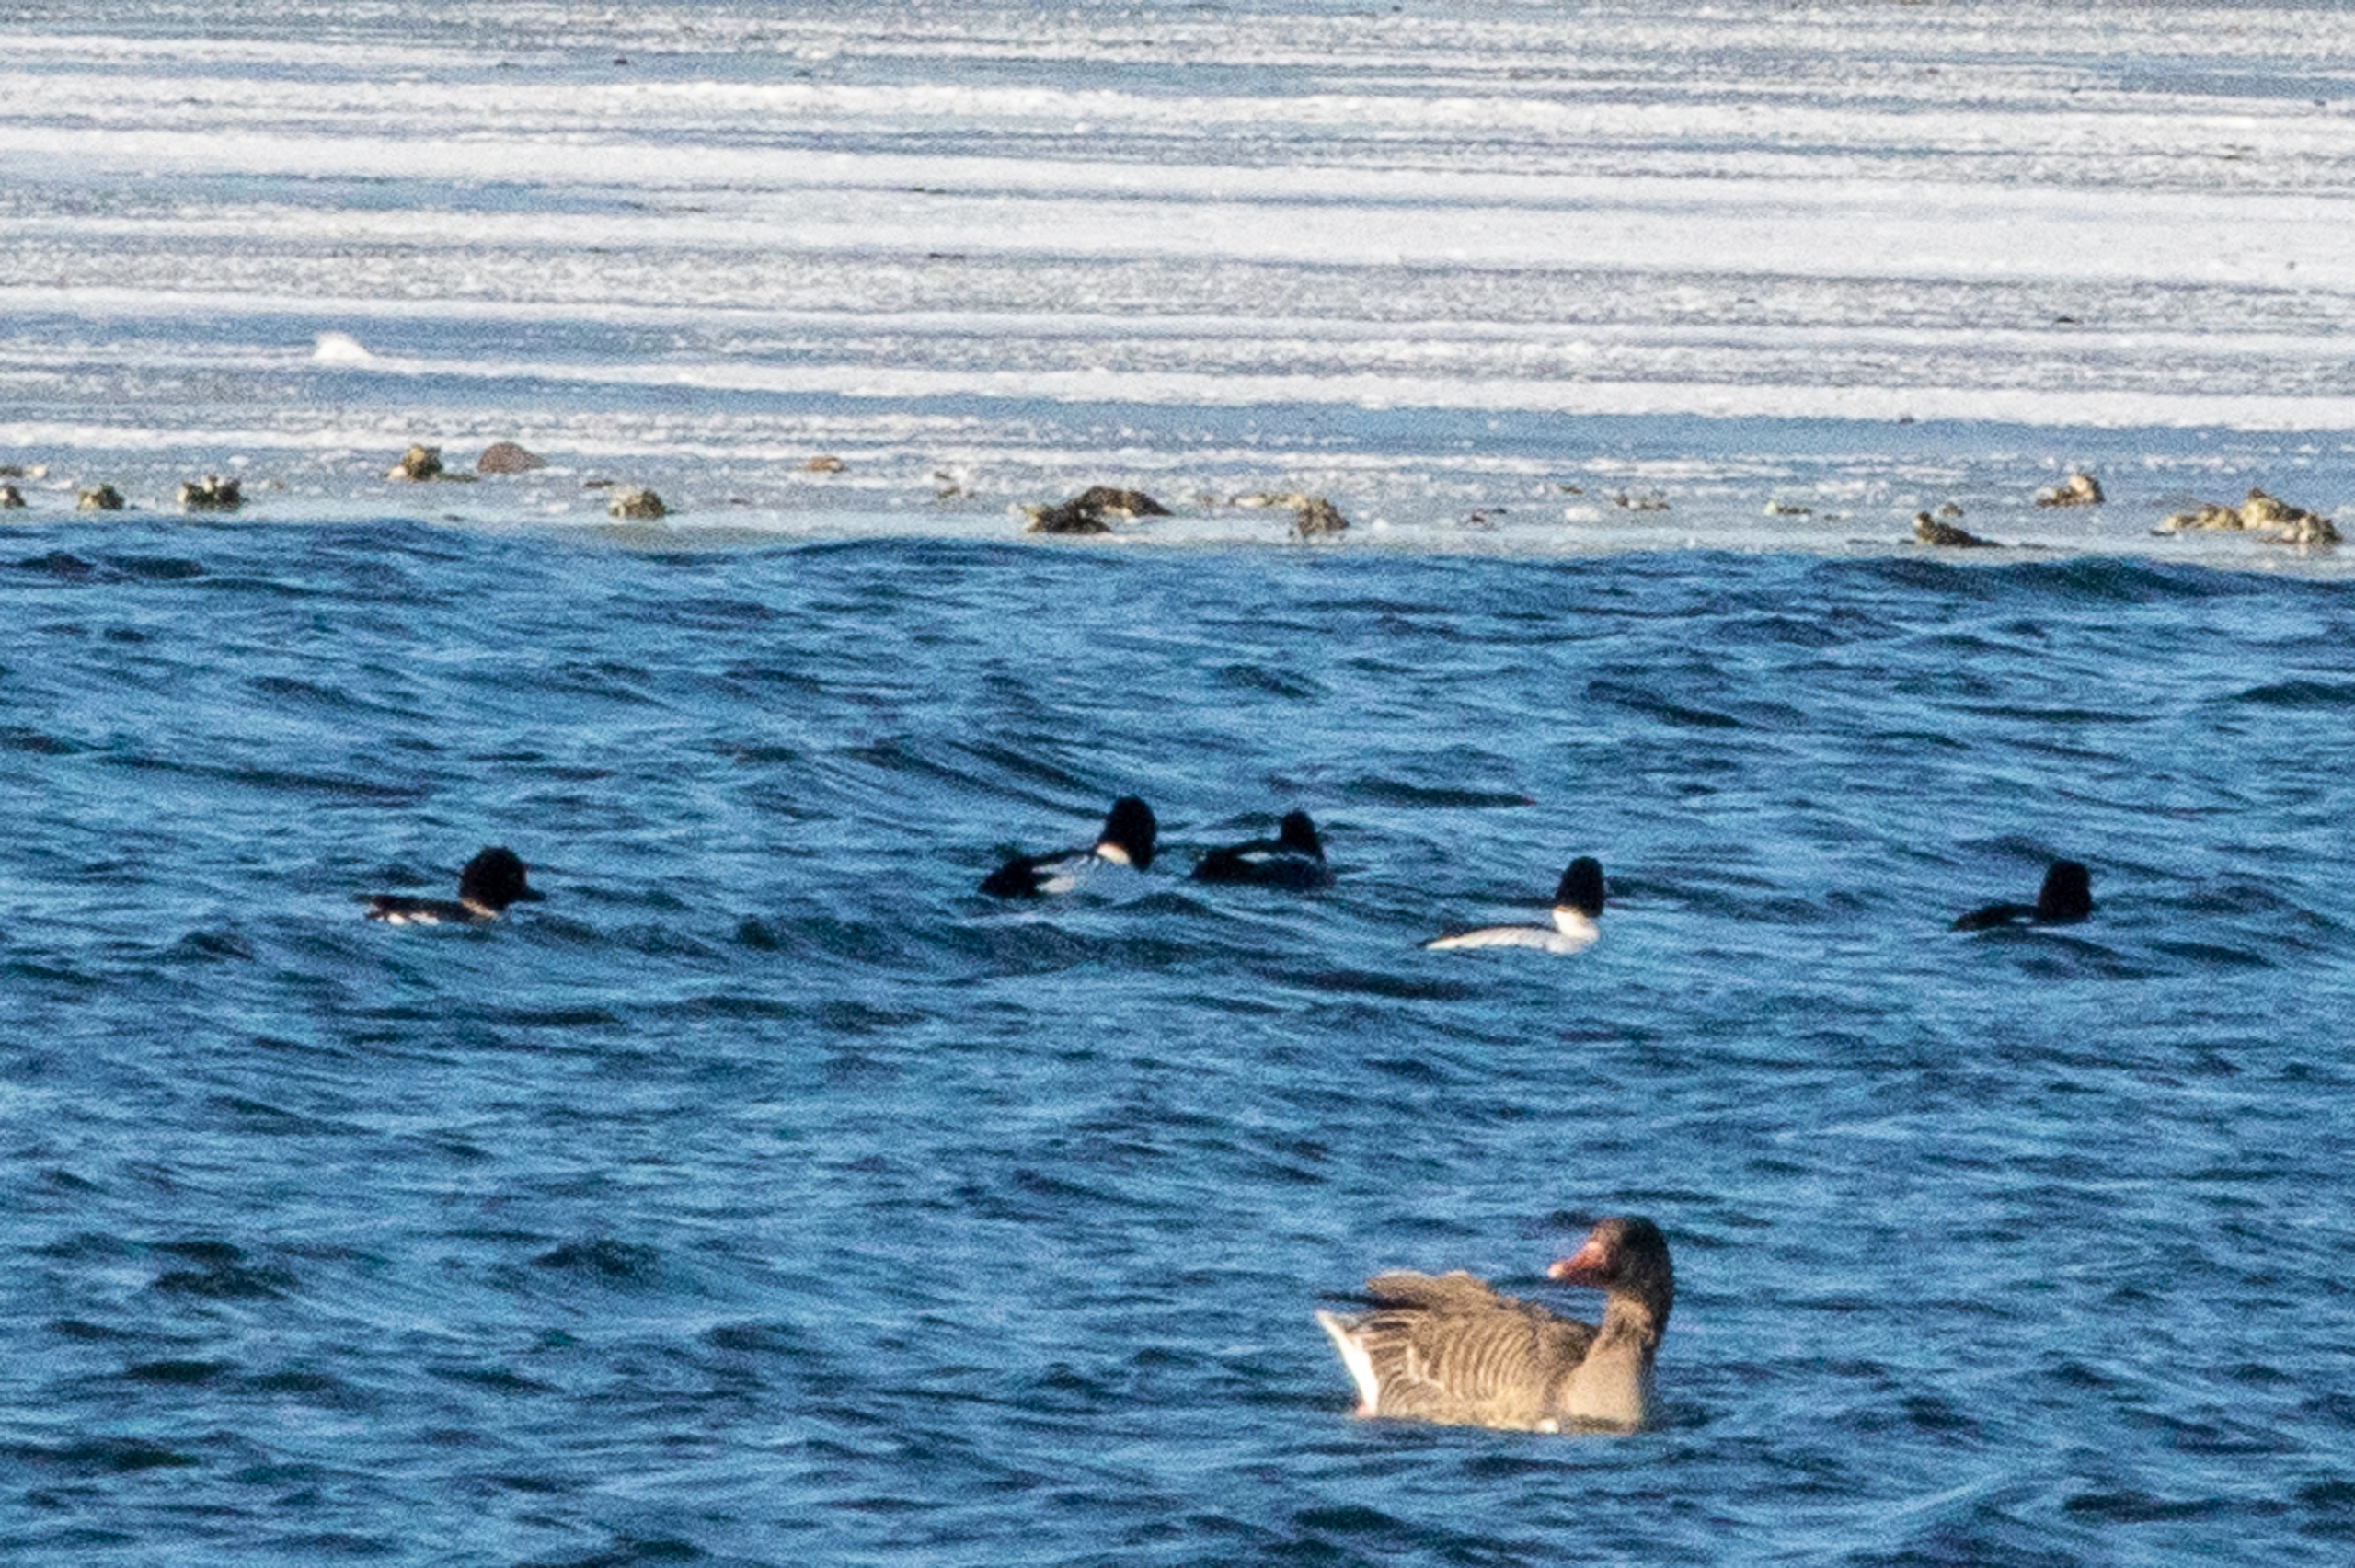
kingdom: Animalia
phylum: Chordata
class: Aves
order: Anseriformes
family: Anatidae
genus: Bucephala
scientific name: Bucephala clangula
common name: Hvinand
